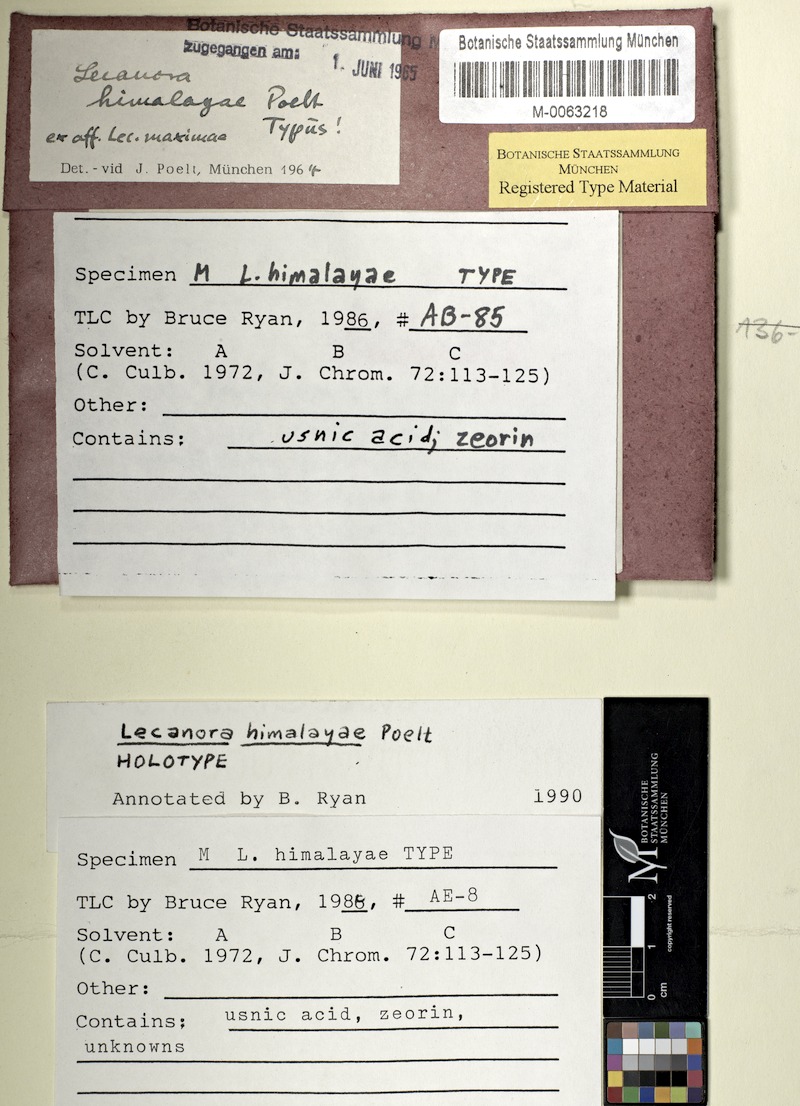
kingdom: Fungi
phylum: Ascomycota
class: Lecanoromycetes
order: Lecanorales
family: Lecanoraceae
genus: Lecanora
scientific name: Lecanora himalayae
